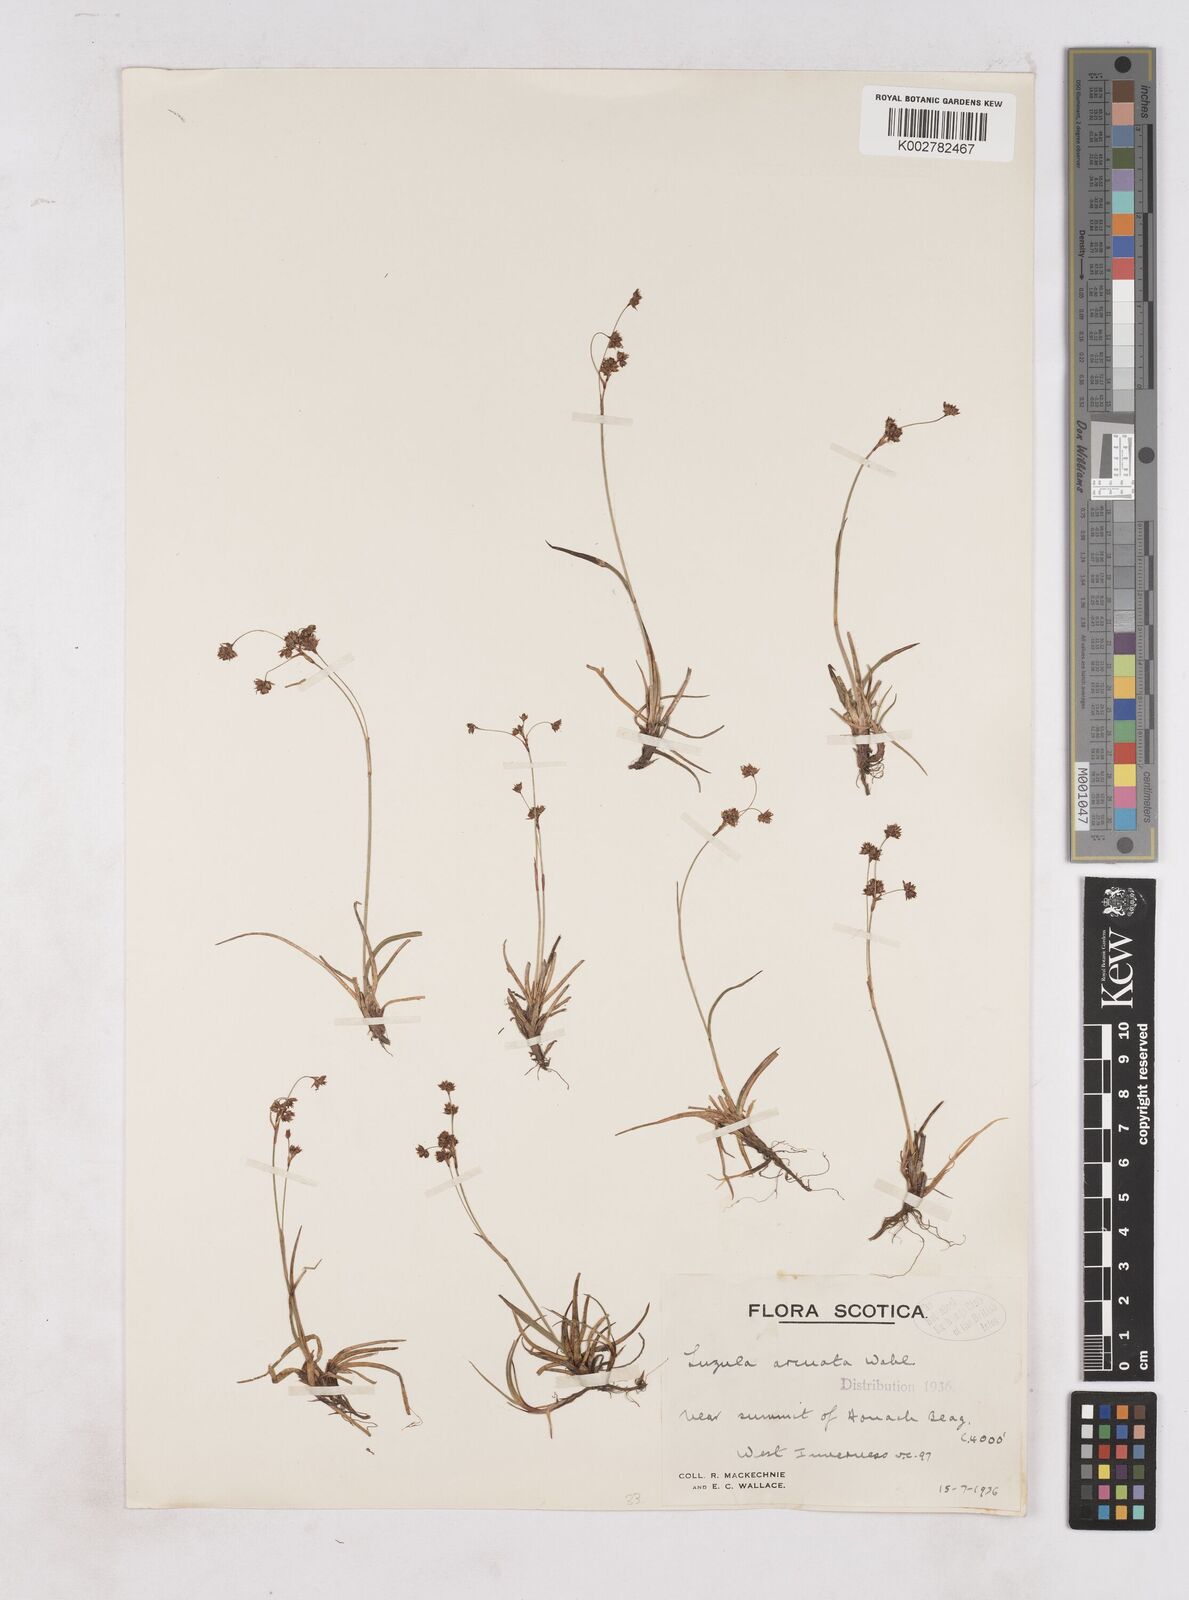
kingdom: Plantae
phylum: Tracheophyta
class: Liliopsida
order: Poales
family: Juncaceae
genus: Luzula
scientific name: Luzula arcuata
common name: Curved wood-rush
